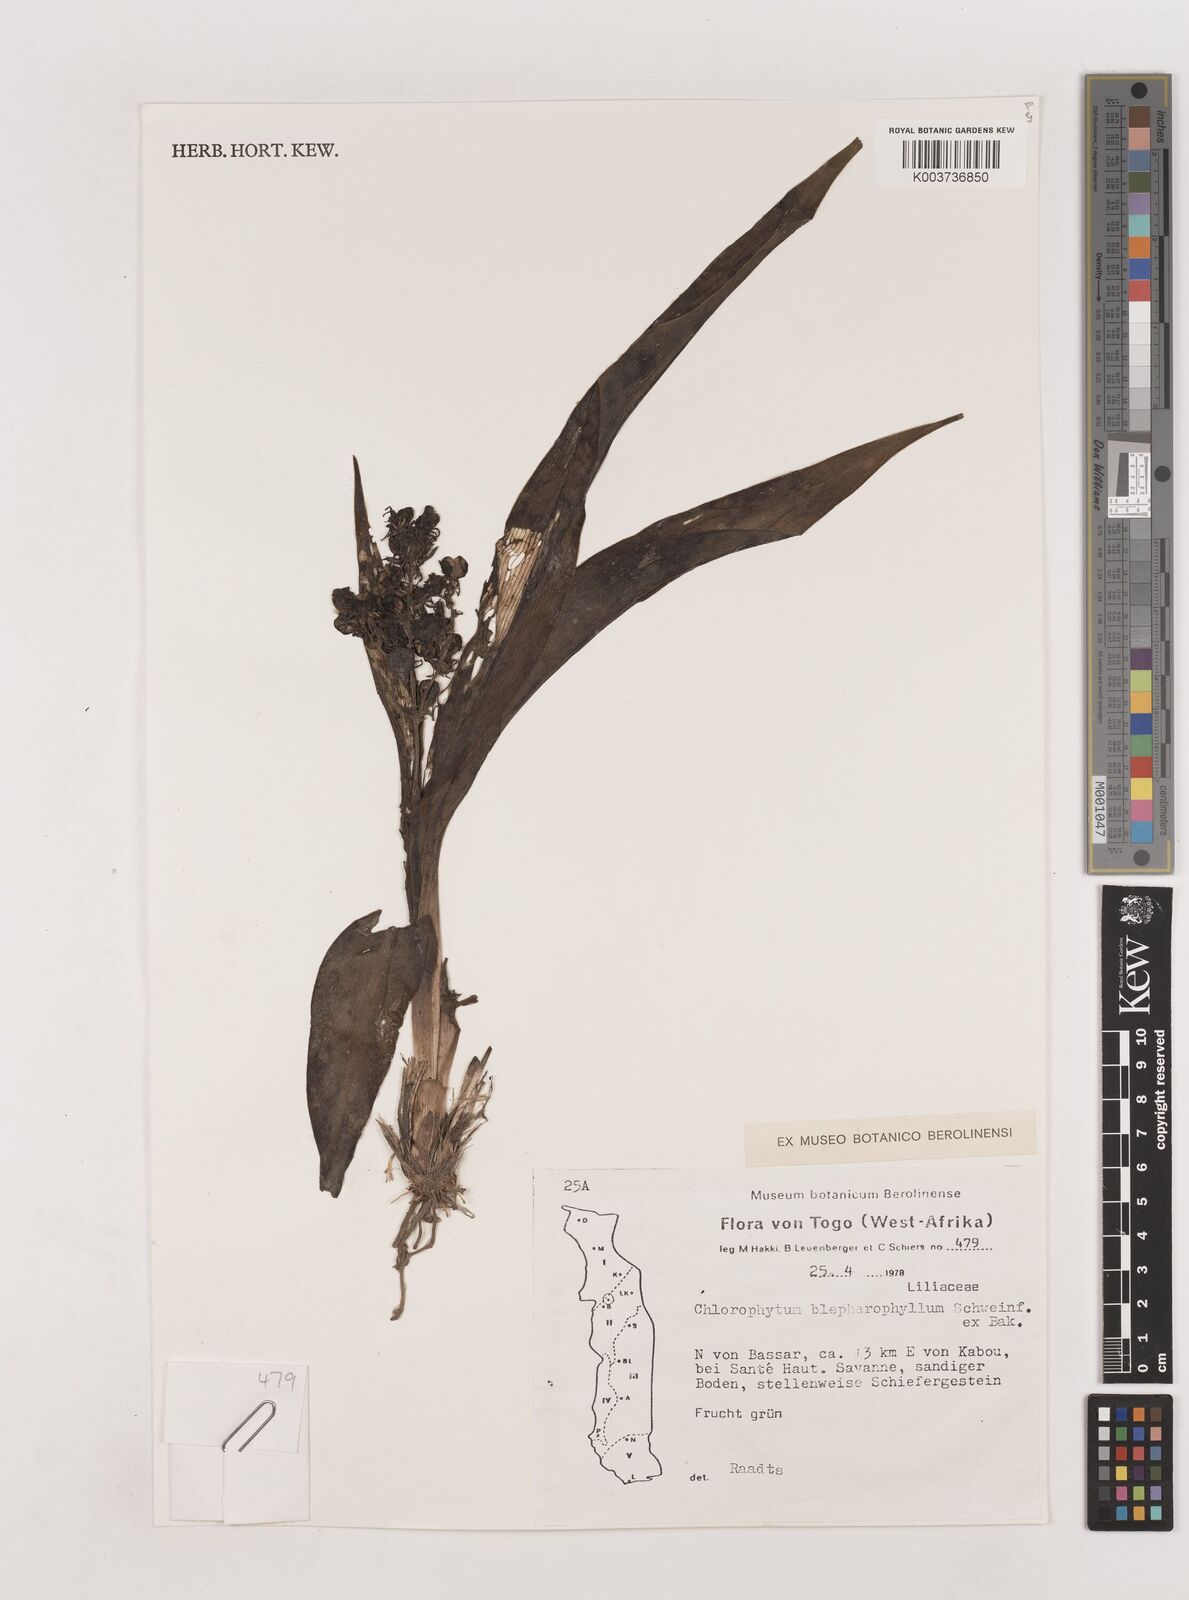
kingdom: Plantae
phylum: Tracheophyta
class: Liliopsida
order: Asparagales
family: Asparagaceae
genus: Chlorophytum
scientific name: Chlorophytum blepharophyllum
